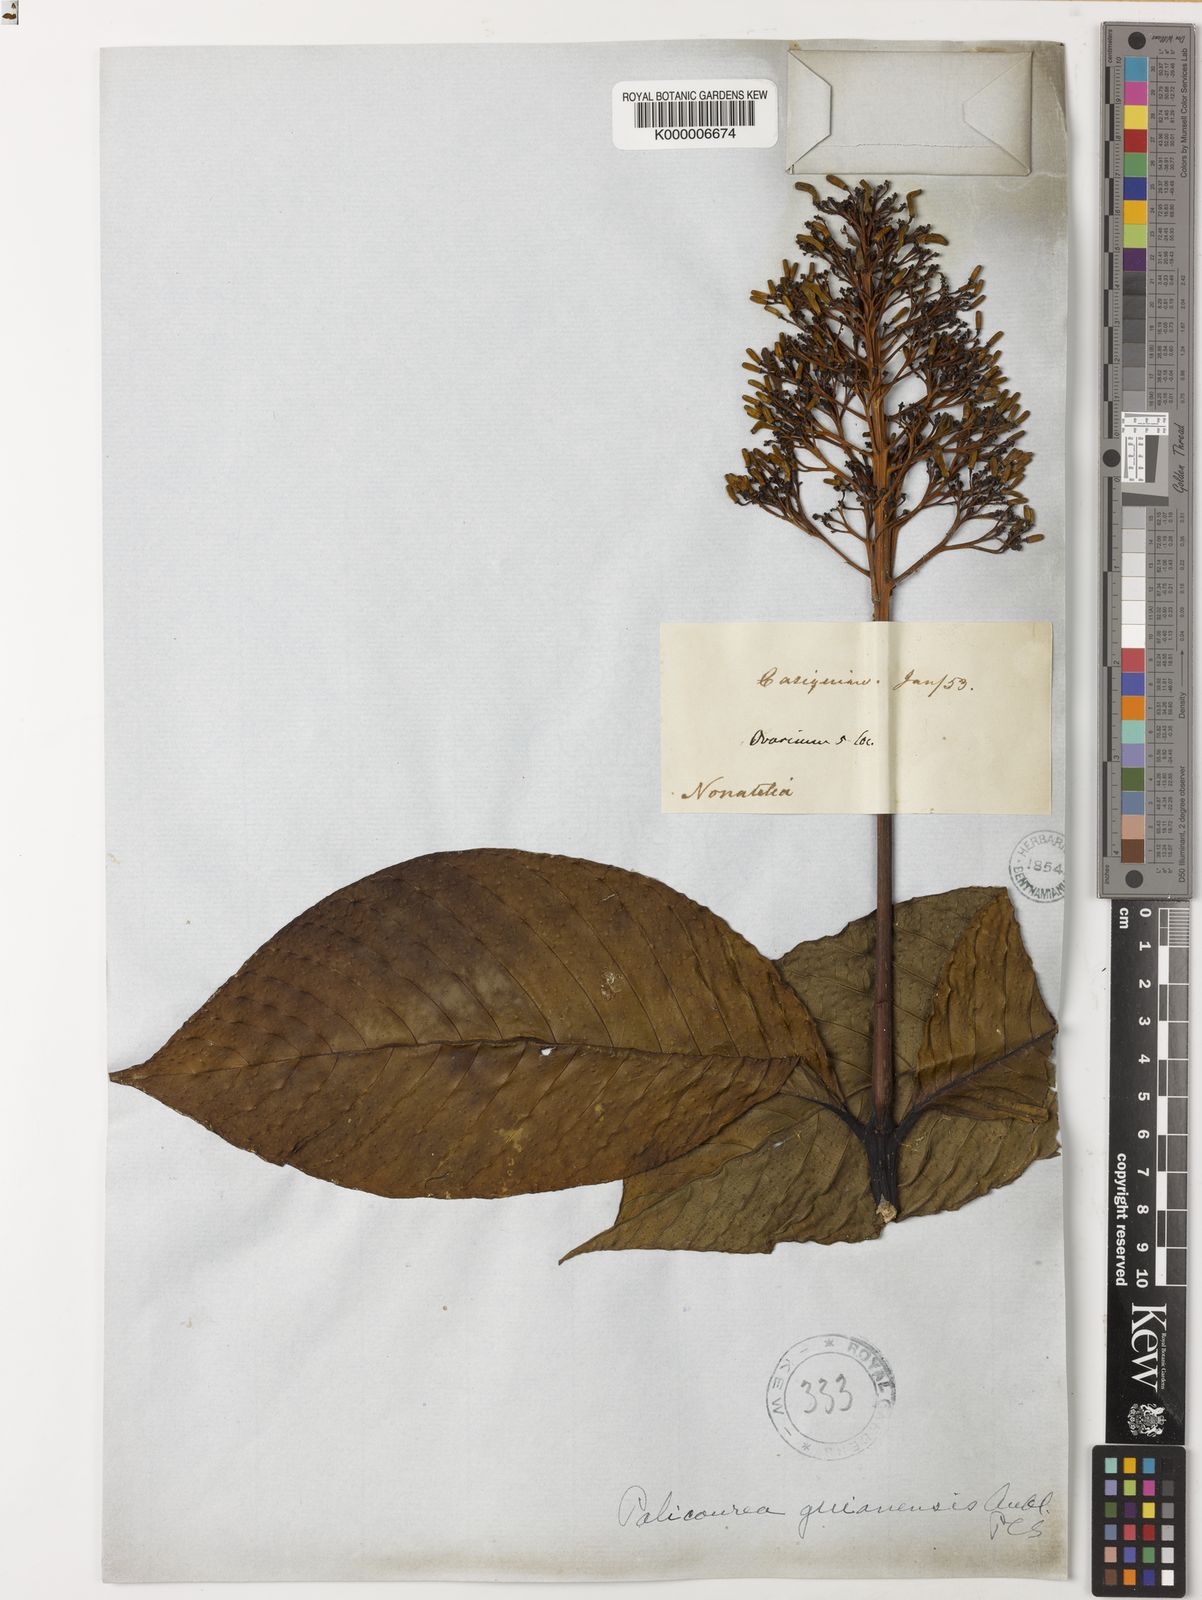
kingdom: Plantae
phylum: Tracheophyta
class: Magnoliopsida
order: Gentianales
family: Rubiaceae
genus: Palicourea
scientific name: Palicourea guianensis
